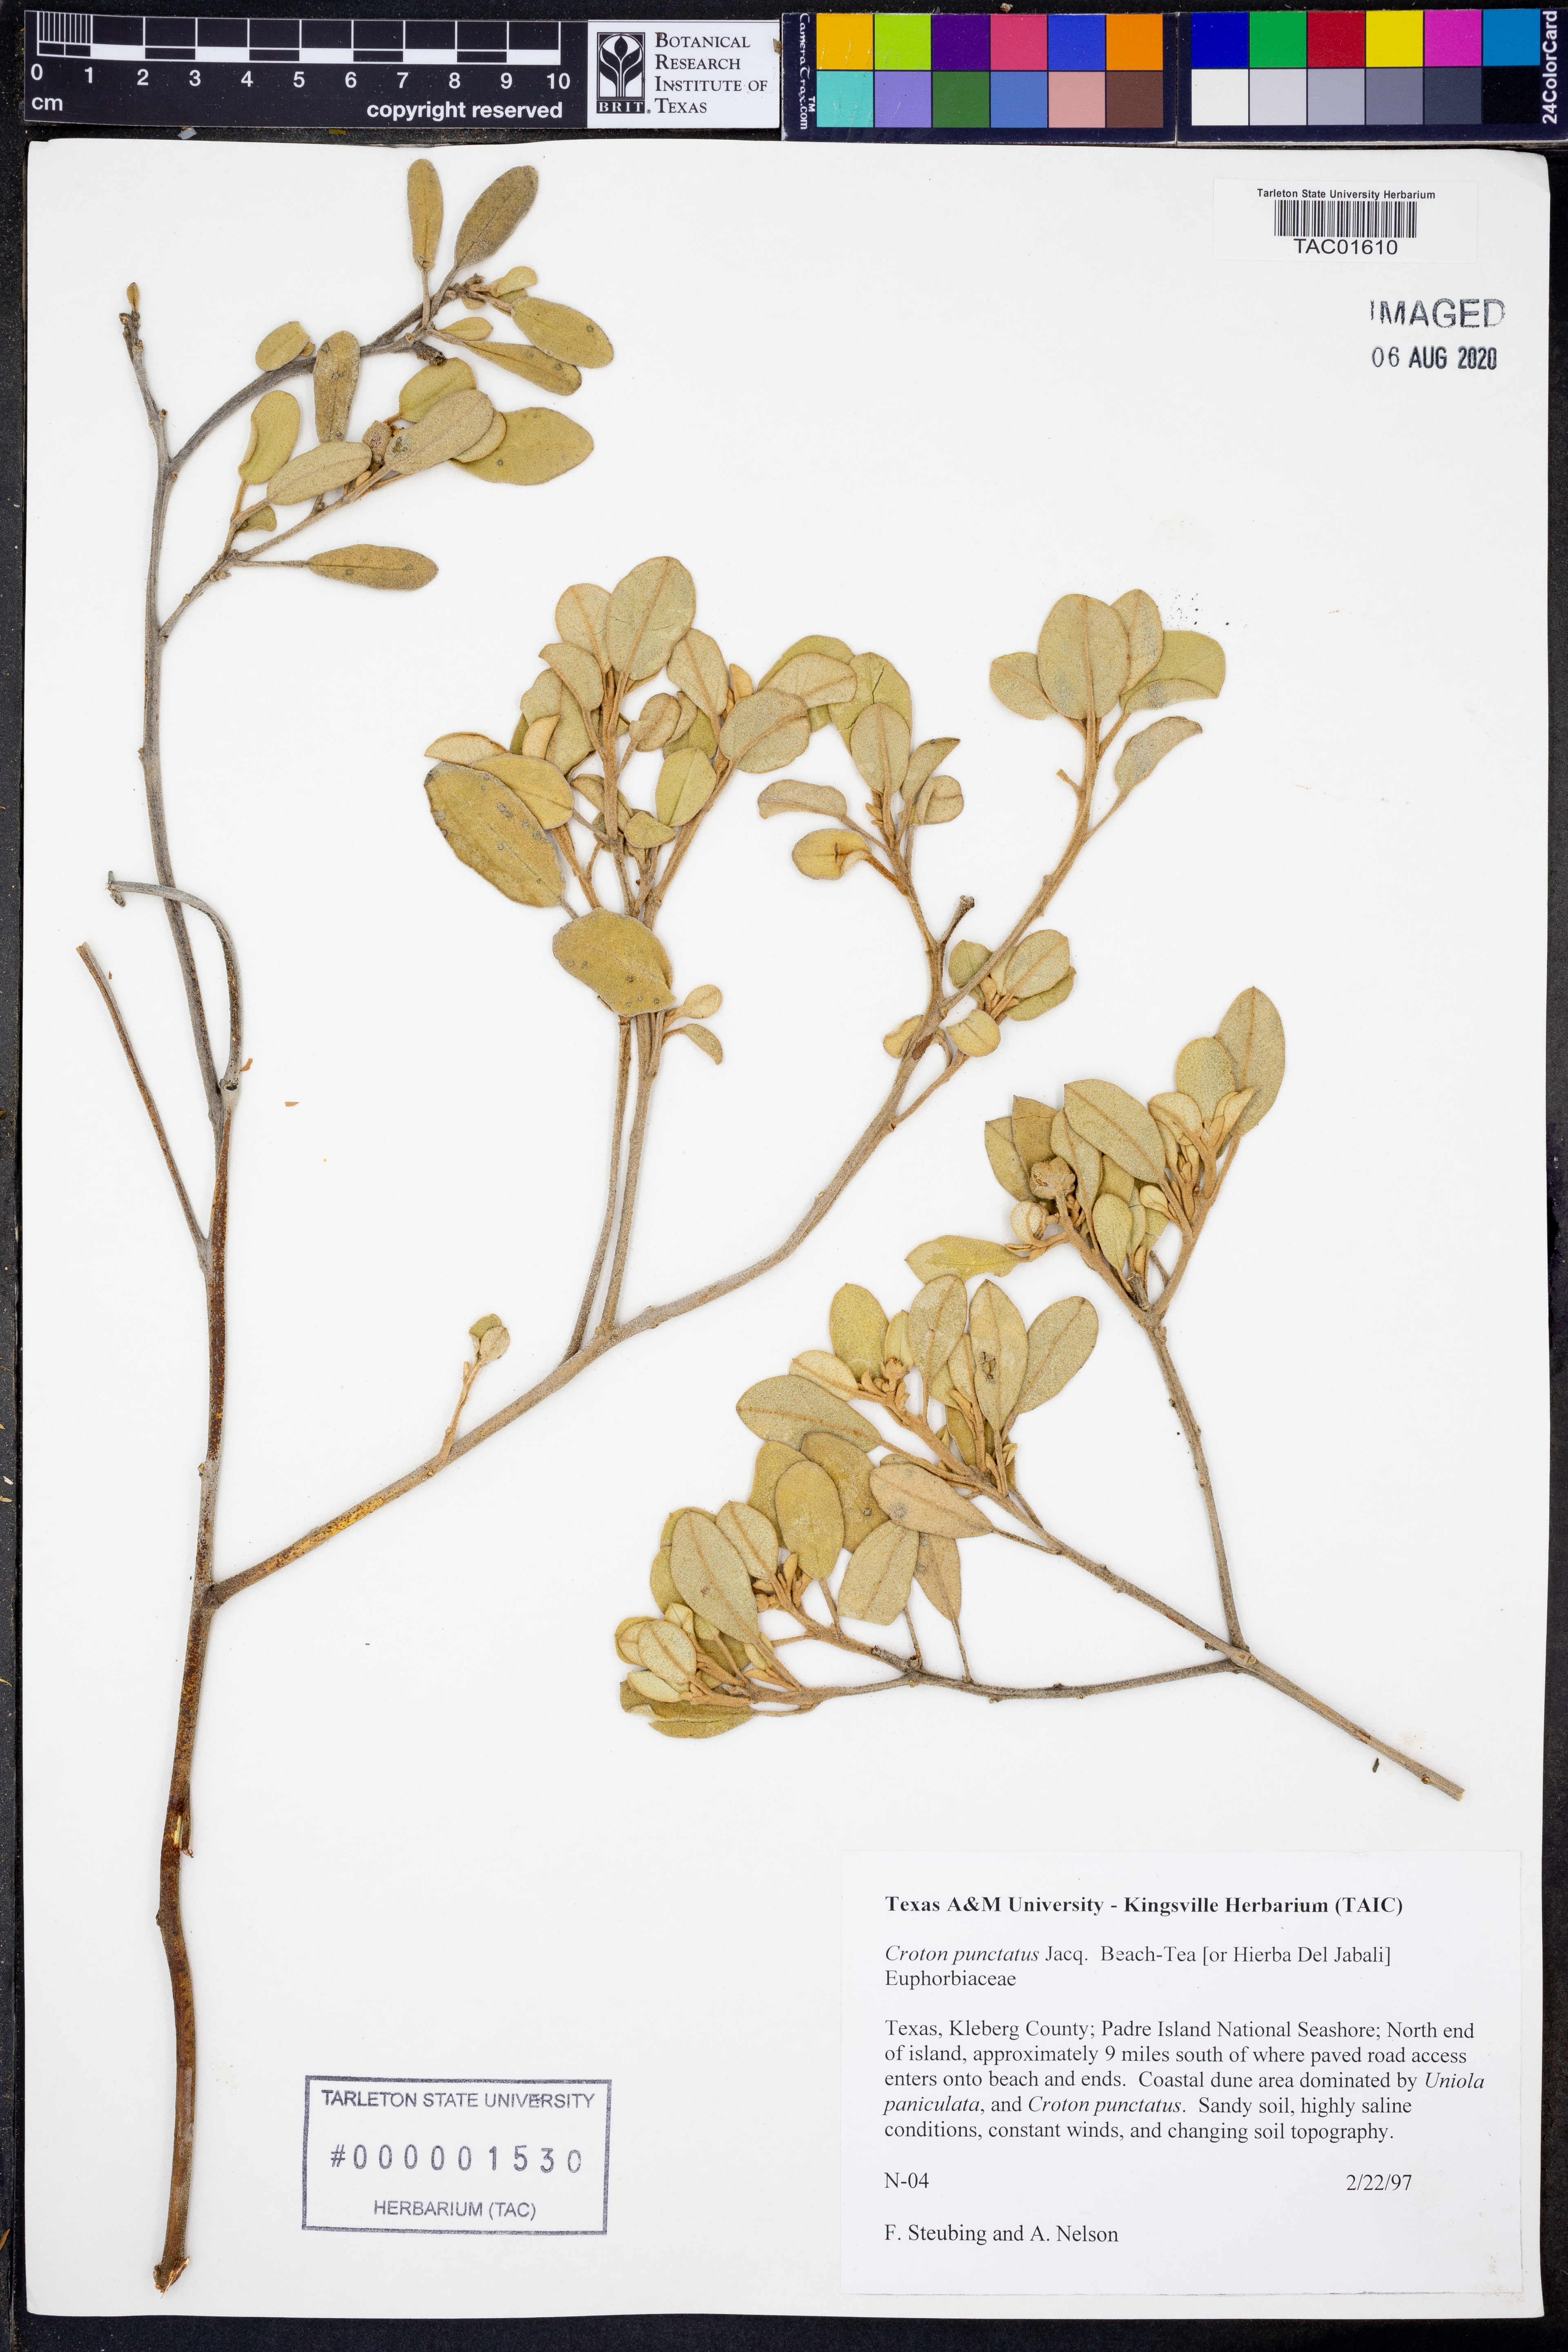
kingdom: Plantae
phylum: Tracheophyta
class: Magnoliopsida
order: Malpighiales
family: Euphorbiaceae
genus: Croton
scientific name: Croton punctatus
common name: Beach-tea
